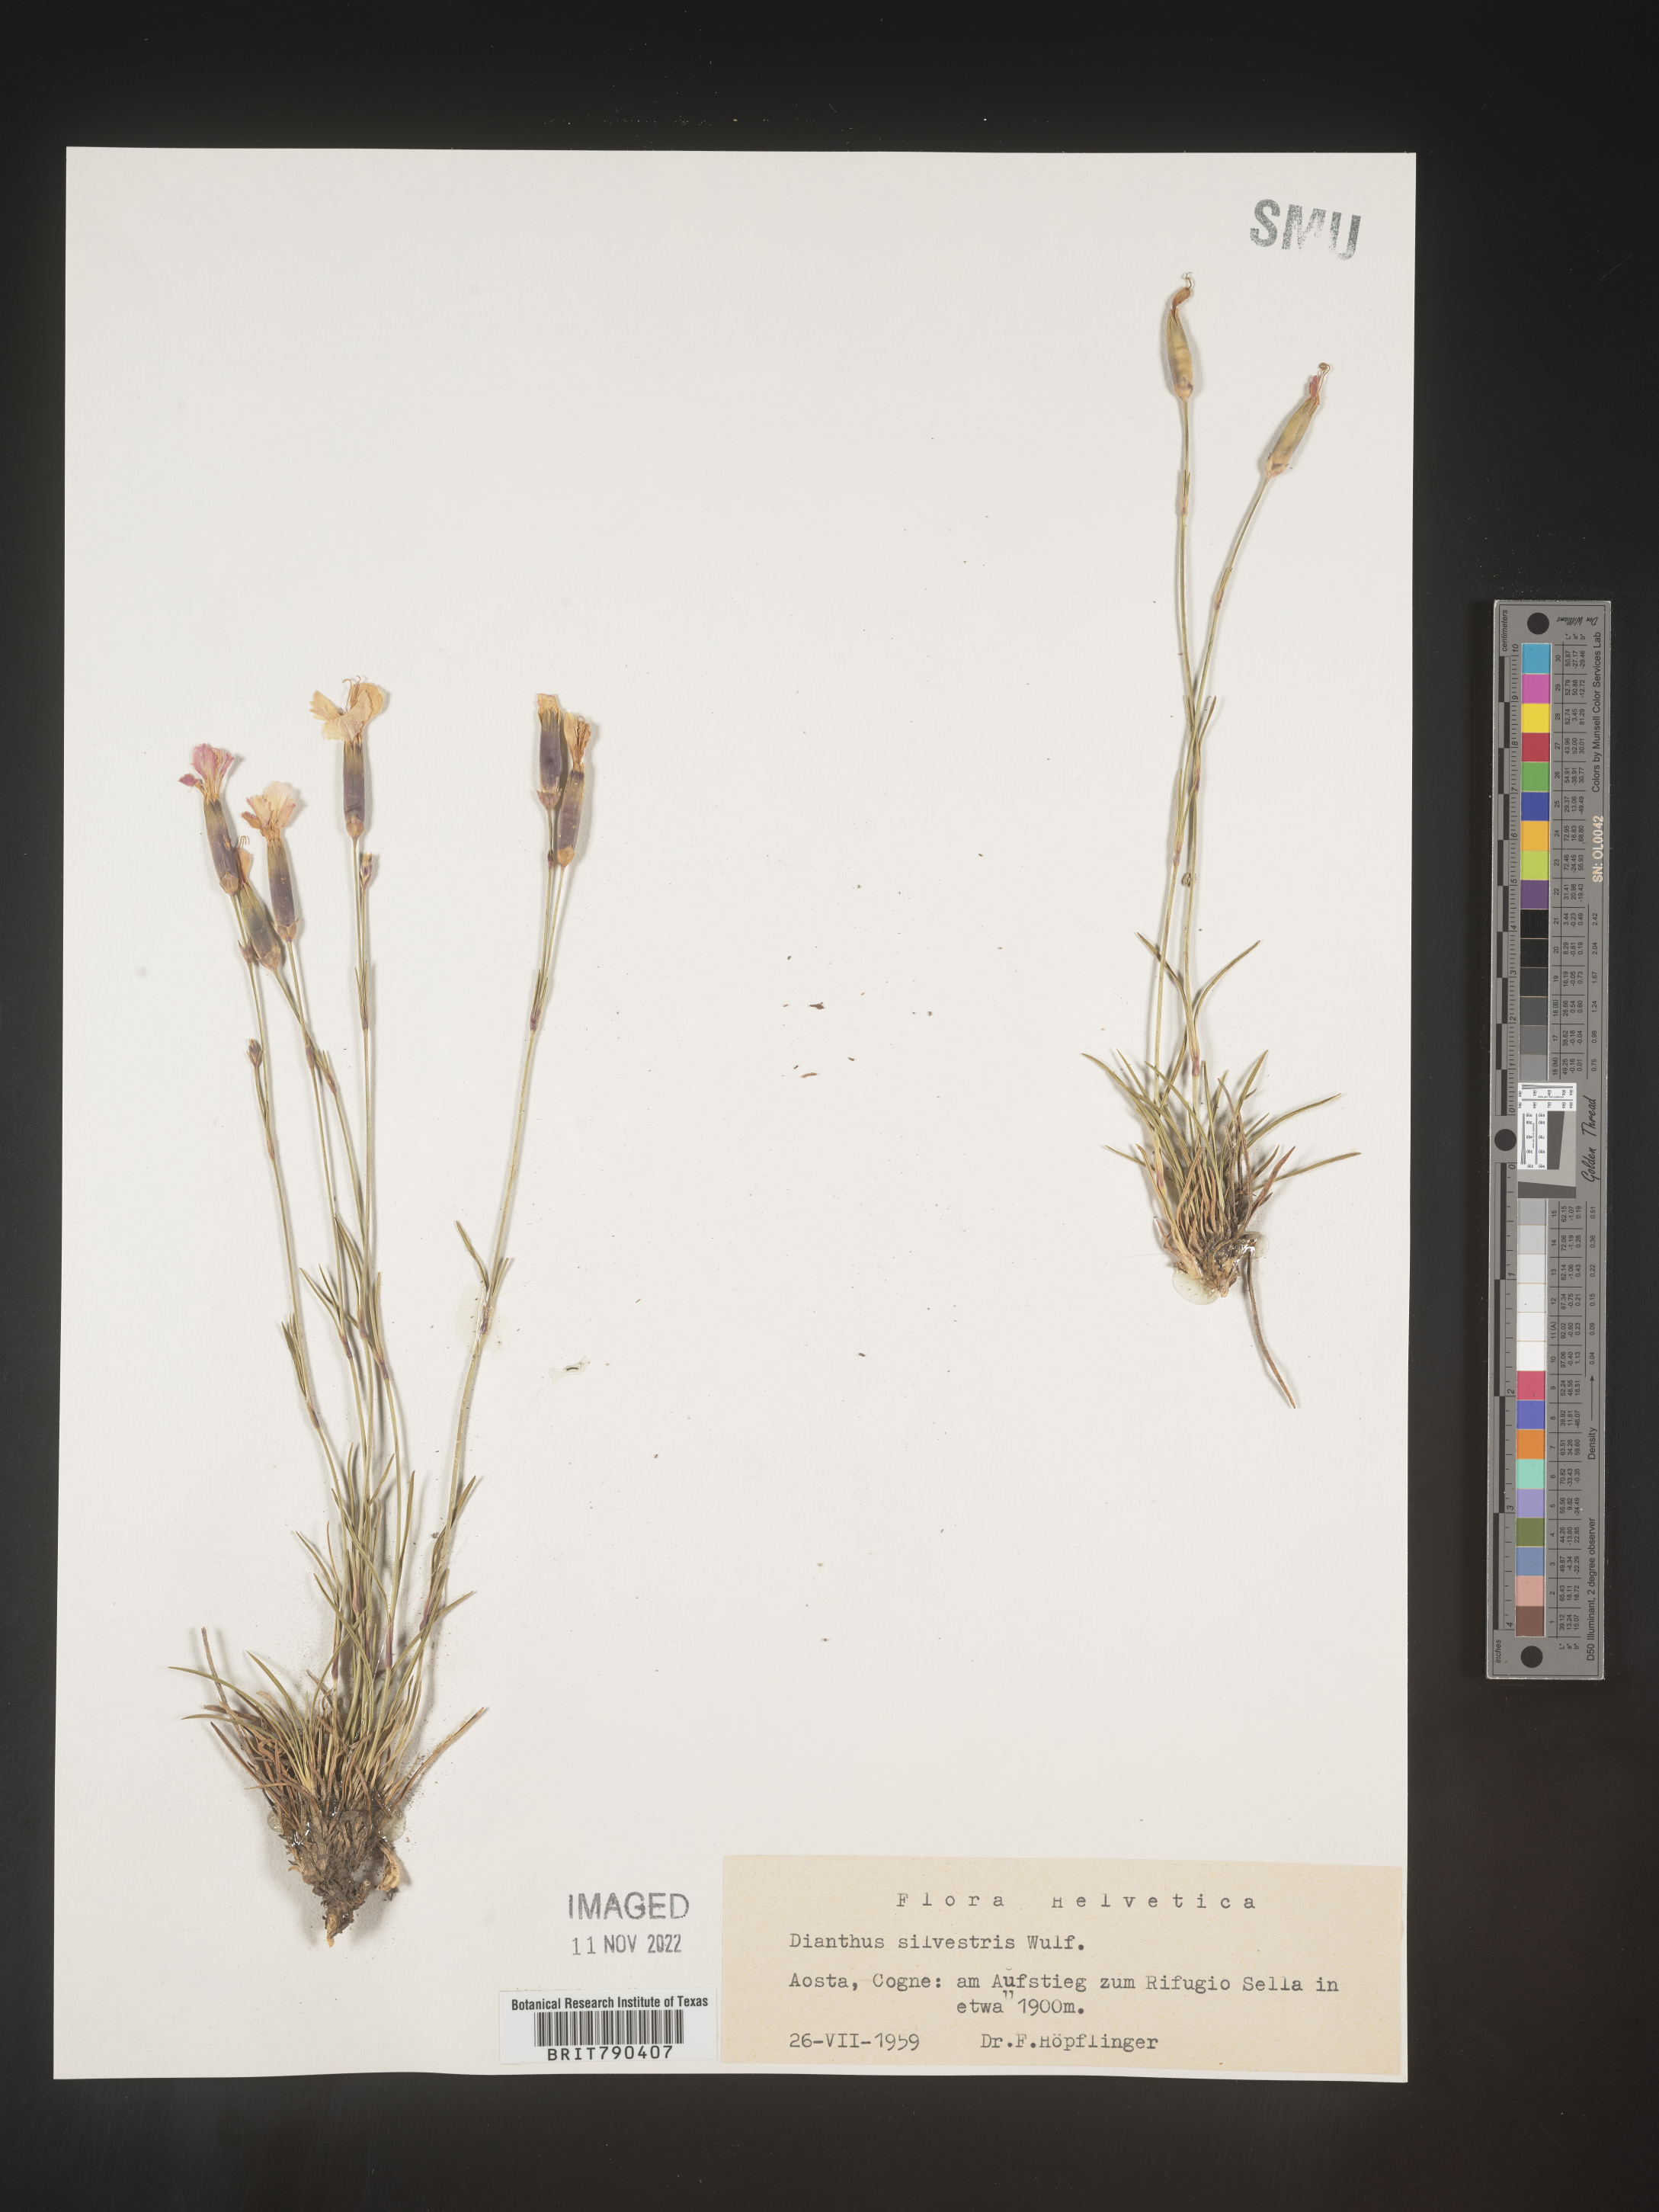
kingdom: Plantae
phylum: Tracheophyta
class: Magnoliopsida
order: Caryophyllales
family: Caryophyllaceae
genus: Dianthus
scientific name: Dianthus
